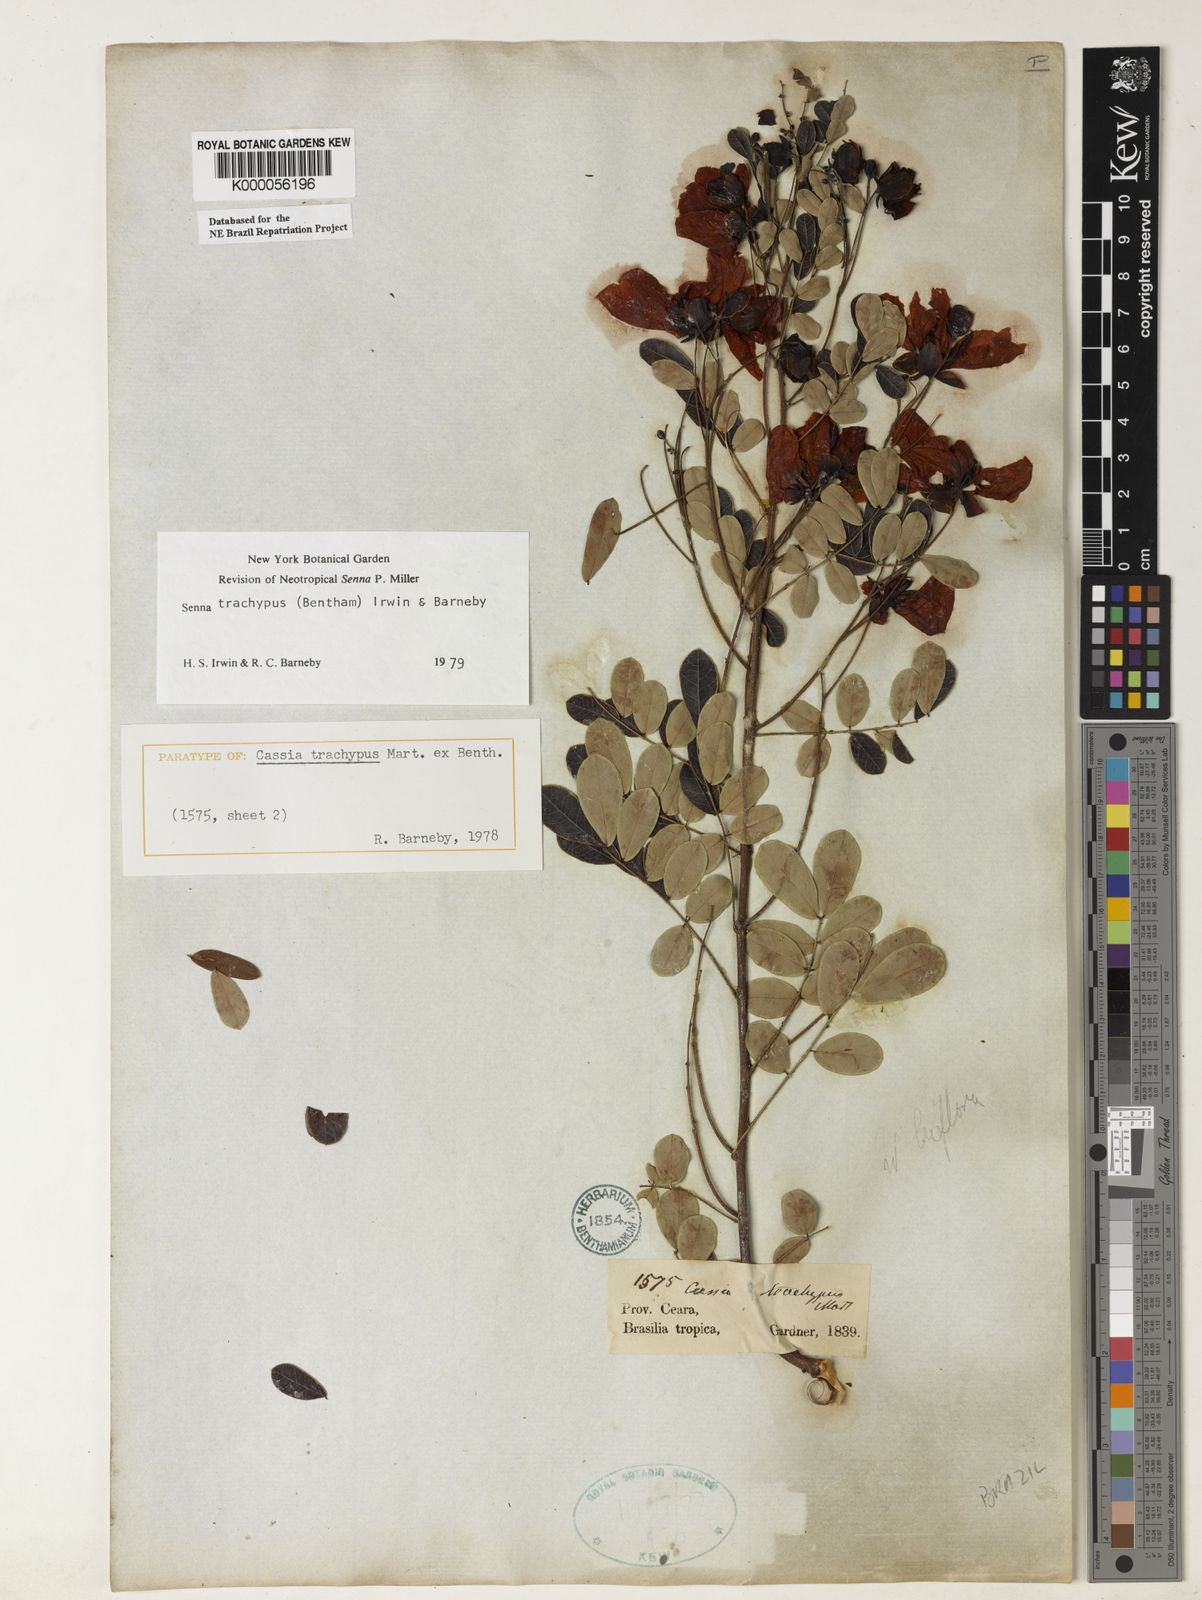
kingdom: Plantae
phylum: Tracheophyta
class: Magnoliopsida
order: Fabales
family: Fabaceae
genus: Senna
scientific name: Senna trachypus
